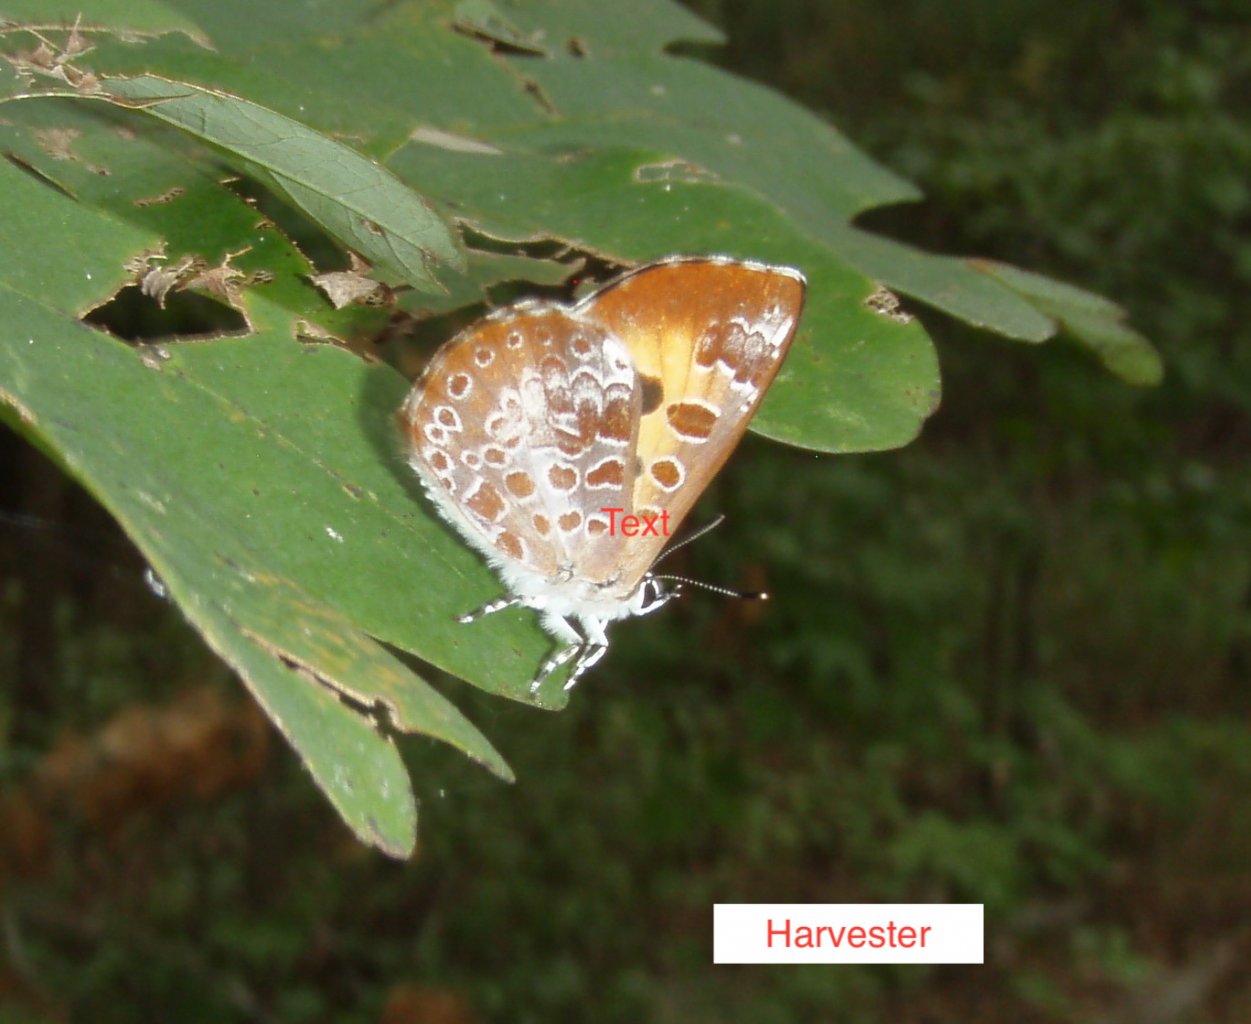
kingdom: Animalia
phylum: Arthropoda
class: Insecta
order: Lepidoptera
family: Lycaenidae
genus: Feniseca
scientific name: Feniseca tarquinius
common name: Harvester
